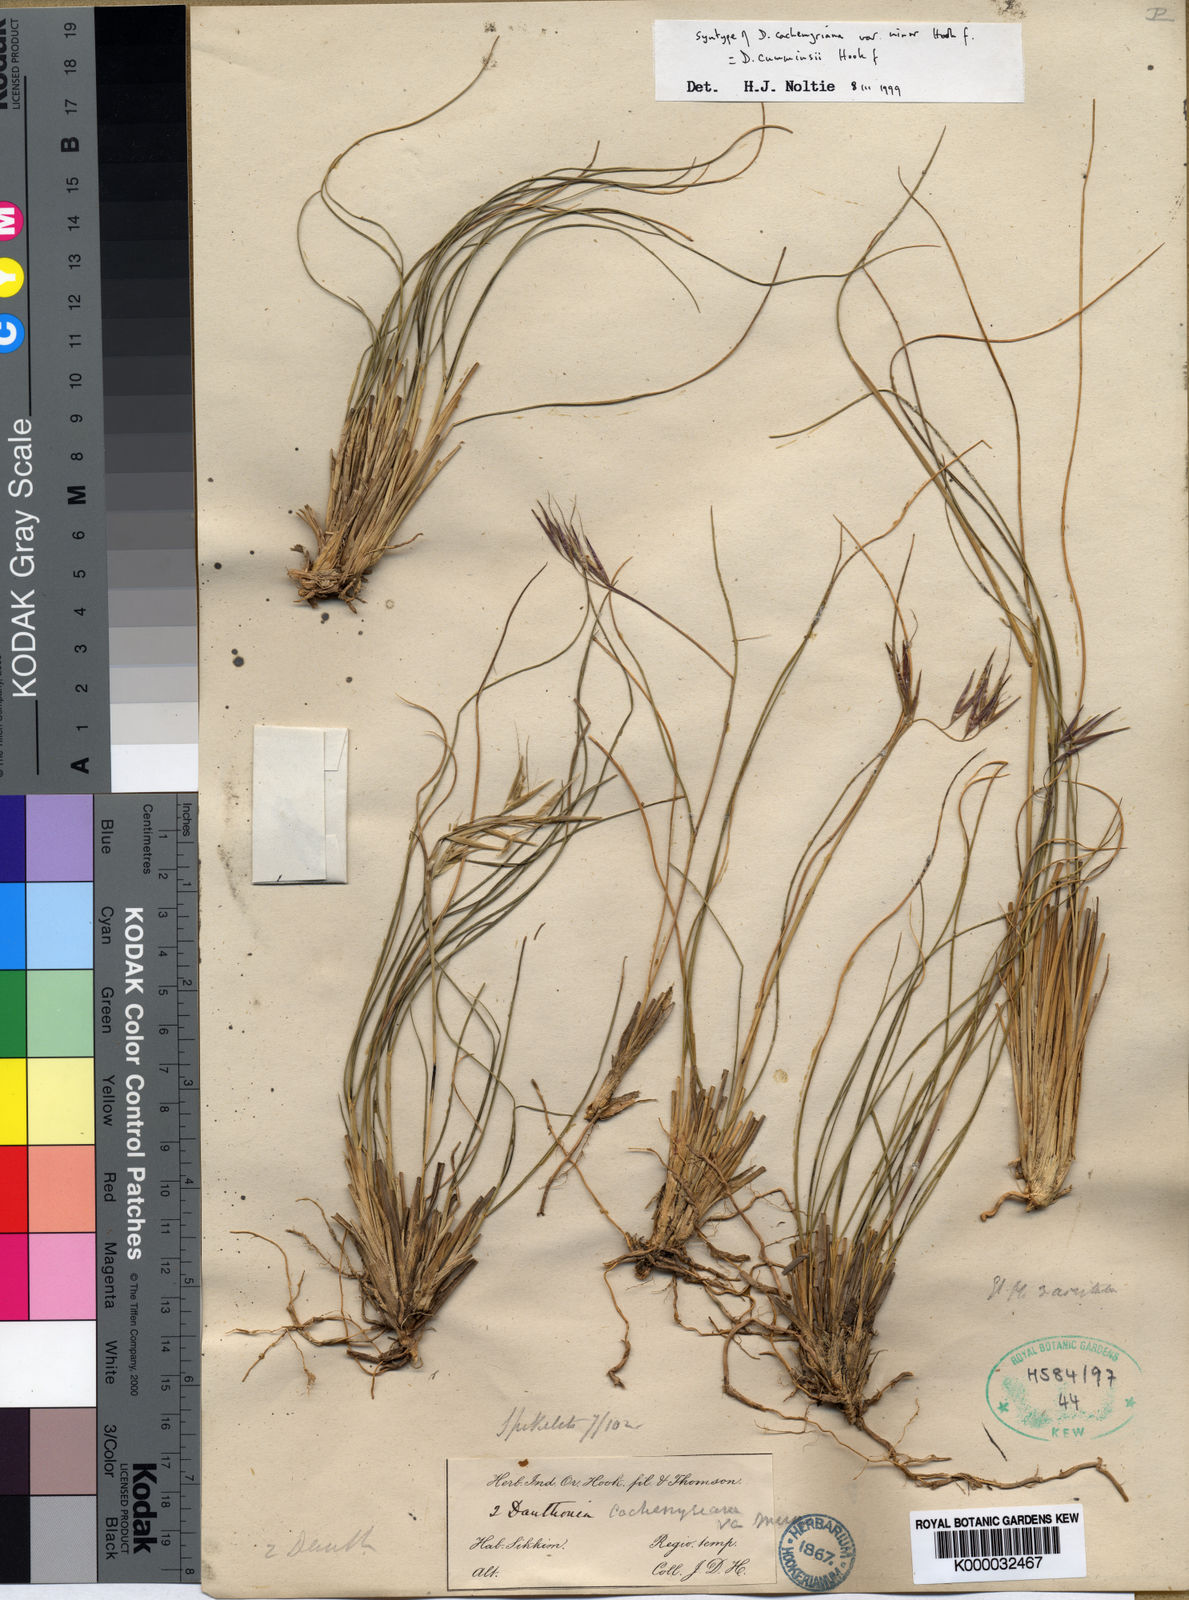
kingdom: Plantae
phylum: Tracheophyta
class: Liliopsida
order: Poales
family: Poaceae
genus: Rytidosperma
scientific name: Rytidosperma
